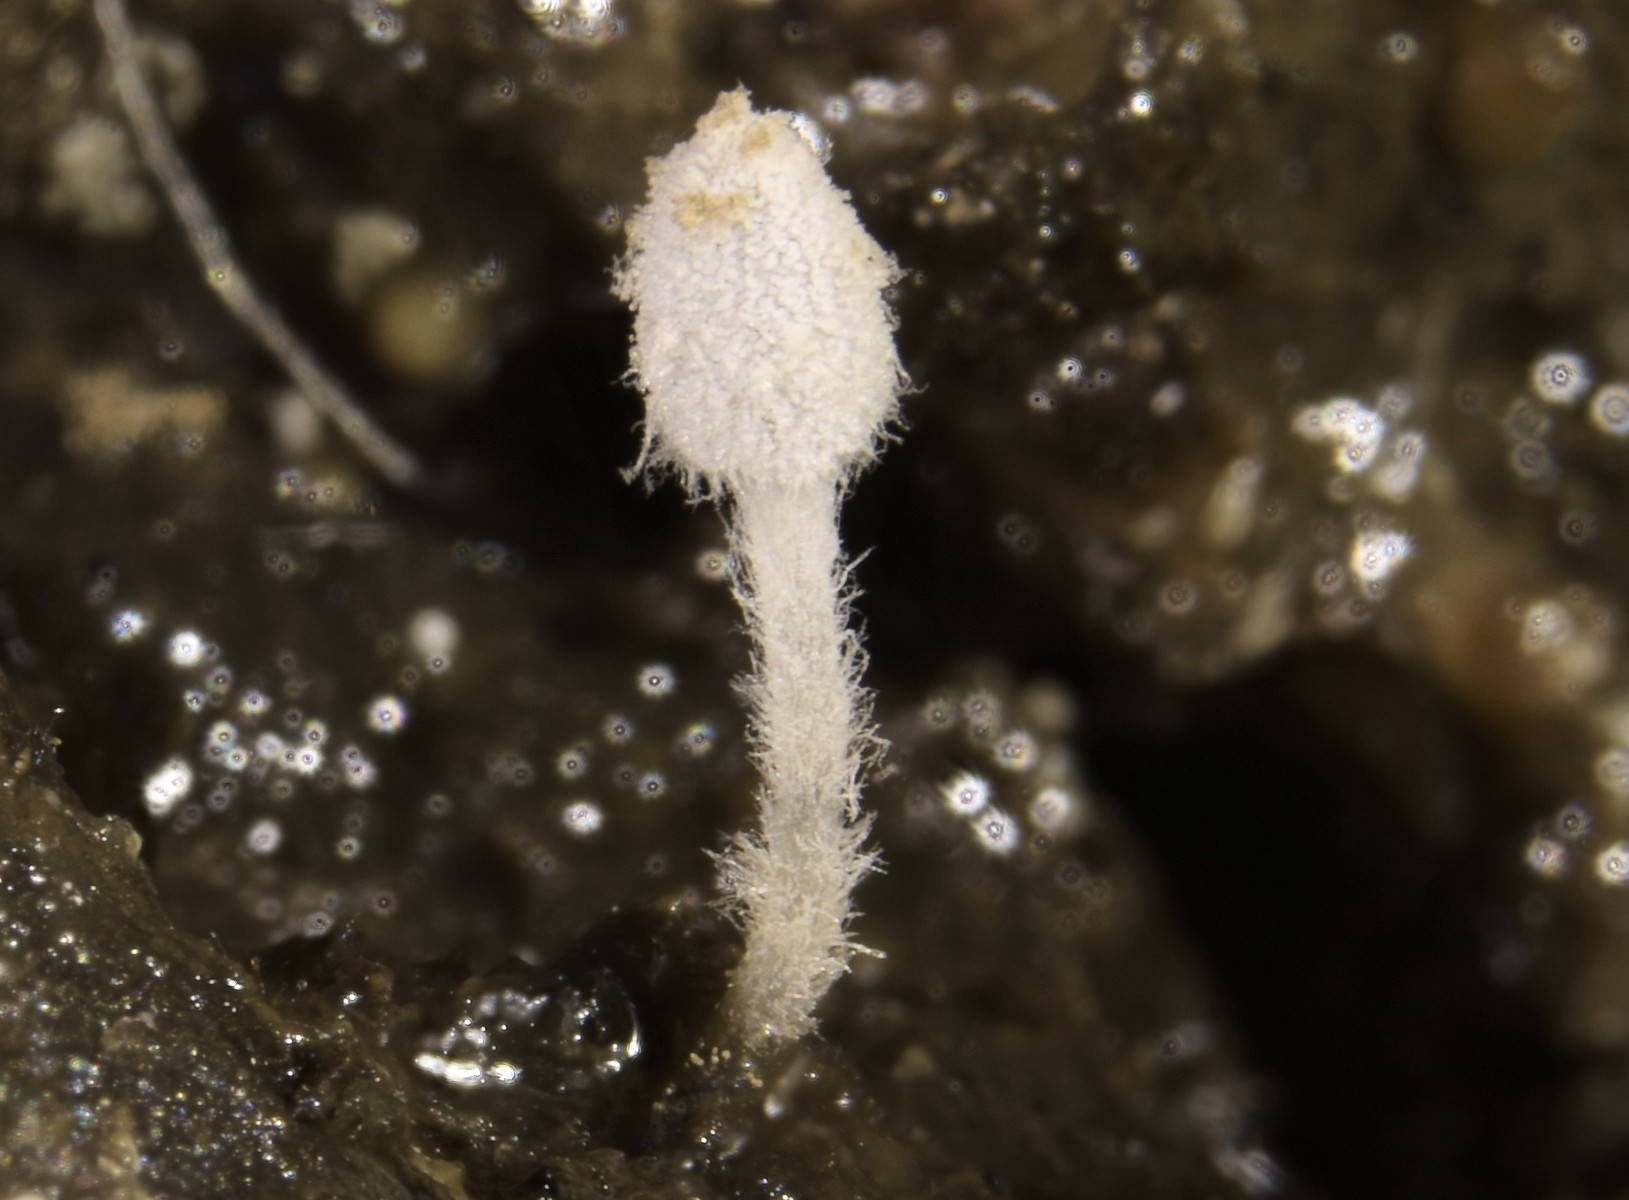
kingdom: Fungi
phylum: Basidiomycota
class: Agaricomycetes
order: Agaricales
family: Psathyrellaceae
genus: Coprinopsis
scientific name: Coprinopsis stercorea
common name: pjusket blækhat
